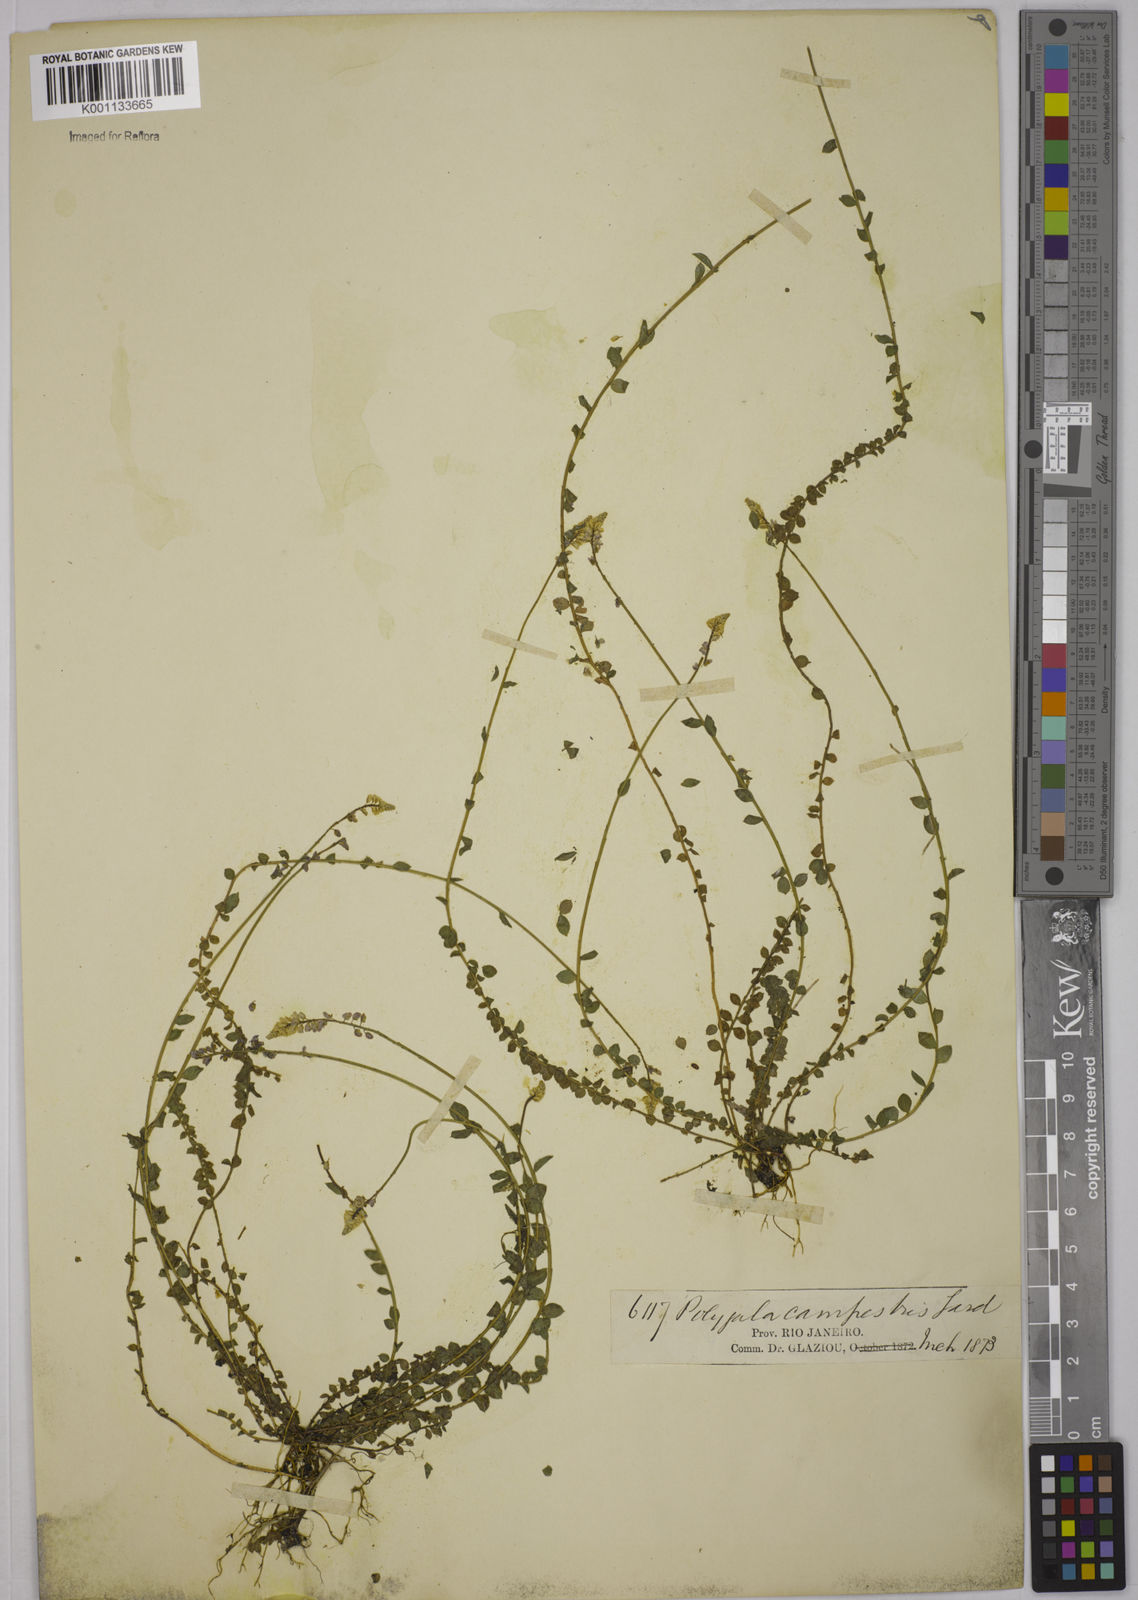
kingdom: Plantae
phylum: Tracheophyta
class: Magnoliopsida
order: Fabales
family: Polygalaceae
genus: Polygala
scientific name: Polygala campestris
